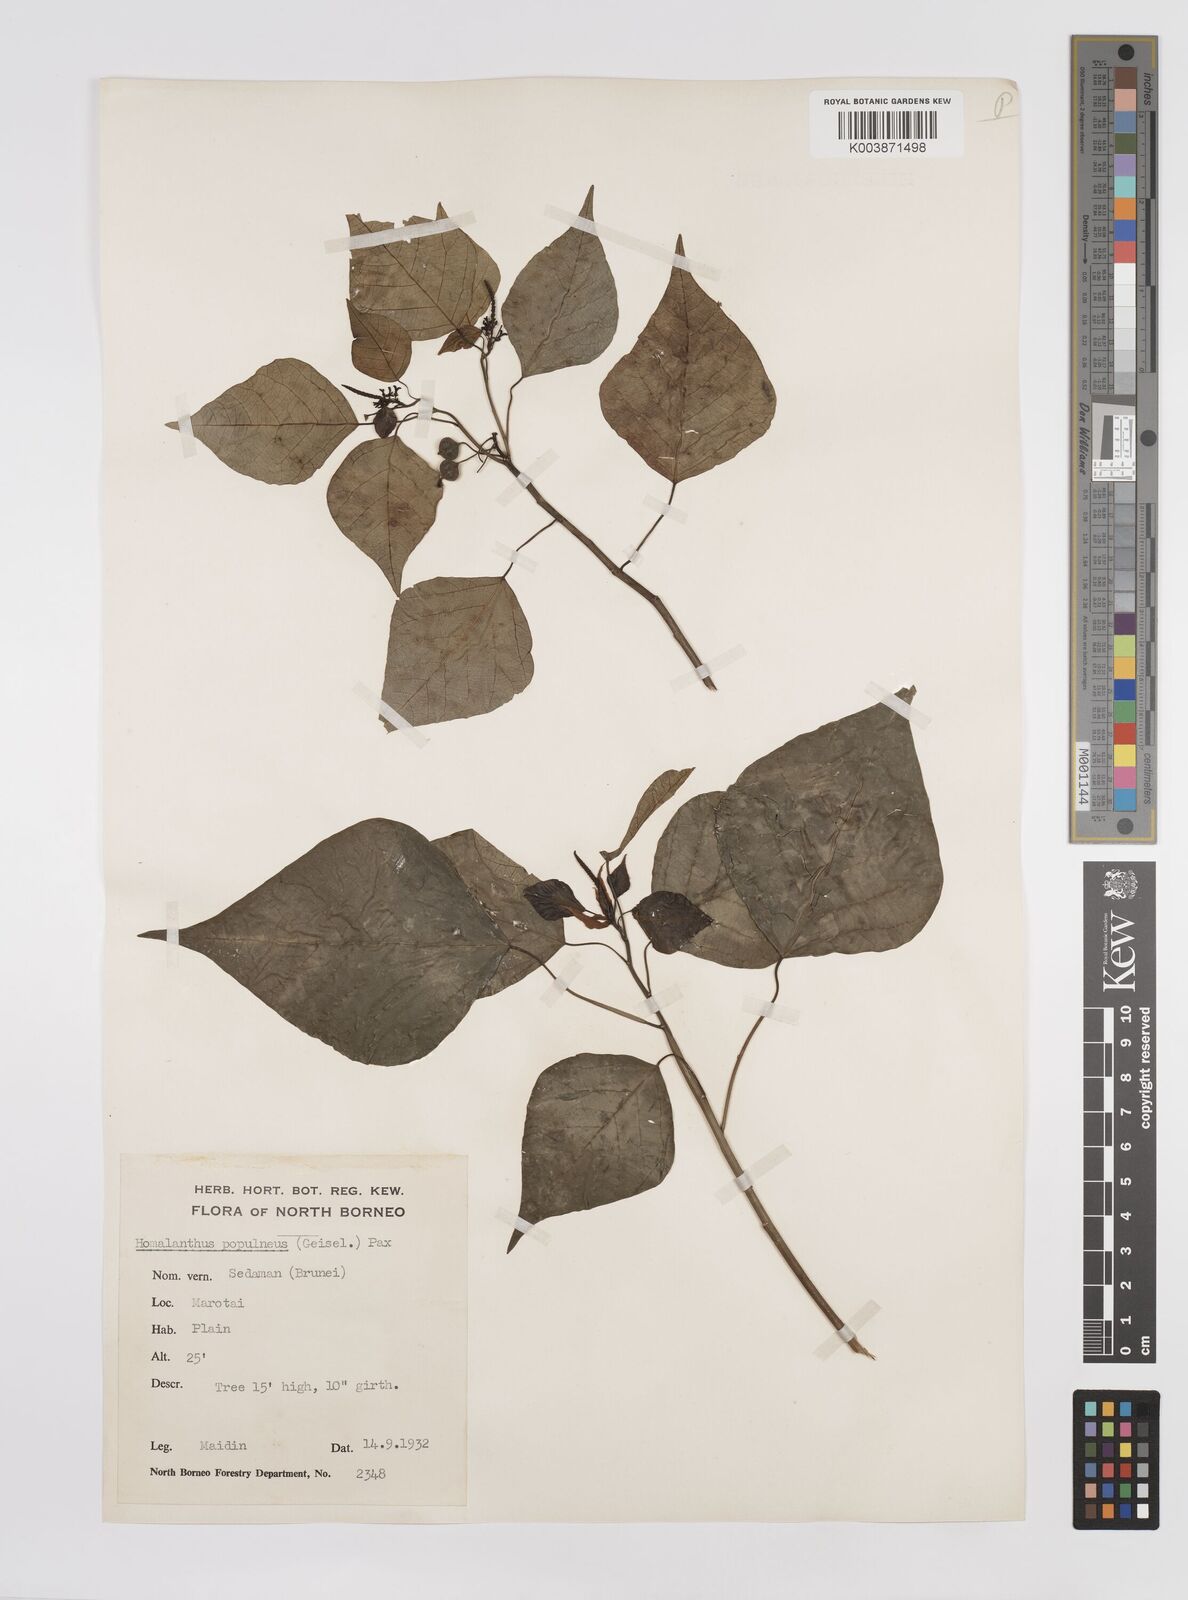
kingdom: Plantae
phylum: Tracheophyta
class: Magnoliopsida
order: Malpighiales
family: Euphorbiaceae
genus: Homalanthus
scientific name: Homalanthus populneus
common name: Spurge
